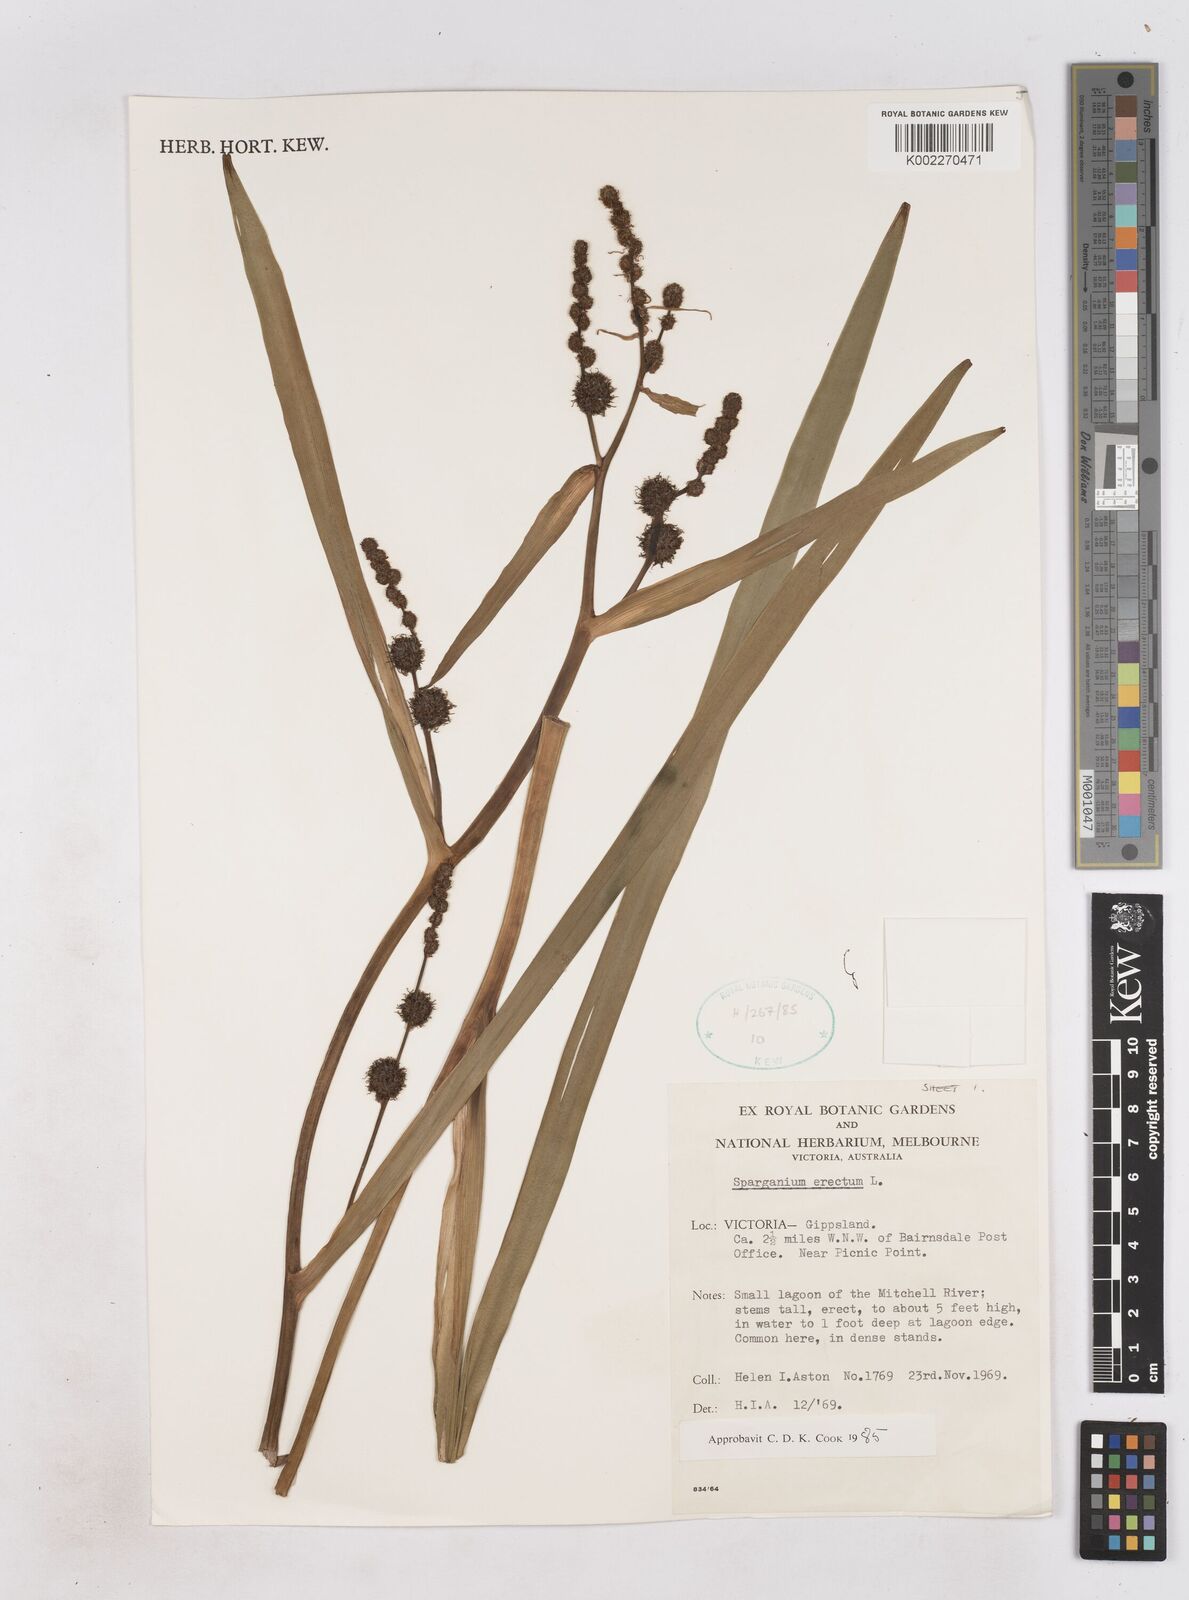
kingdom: Plantae
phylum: Tracheophyta
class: Liliopsida
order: Poales
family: Typhaceae
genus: Sparganium
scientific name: Sparganium erectum
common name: Branched bur-reed
